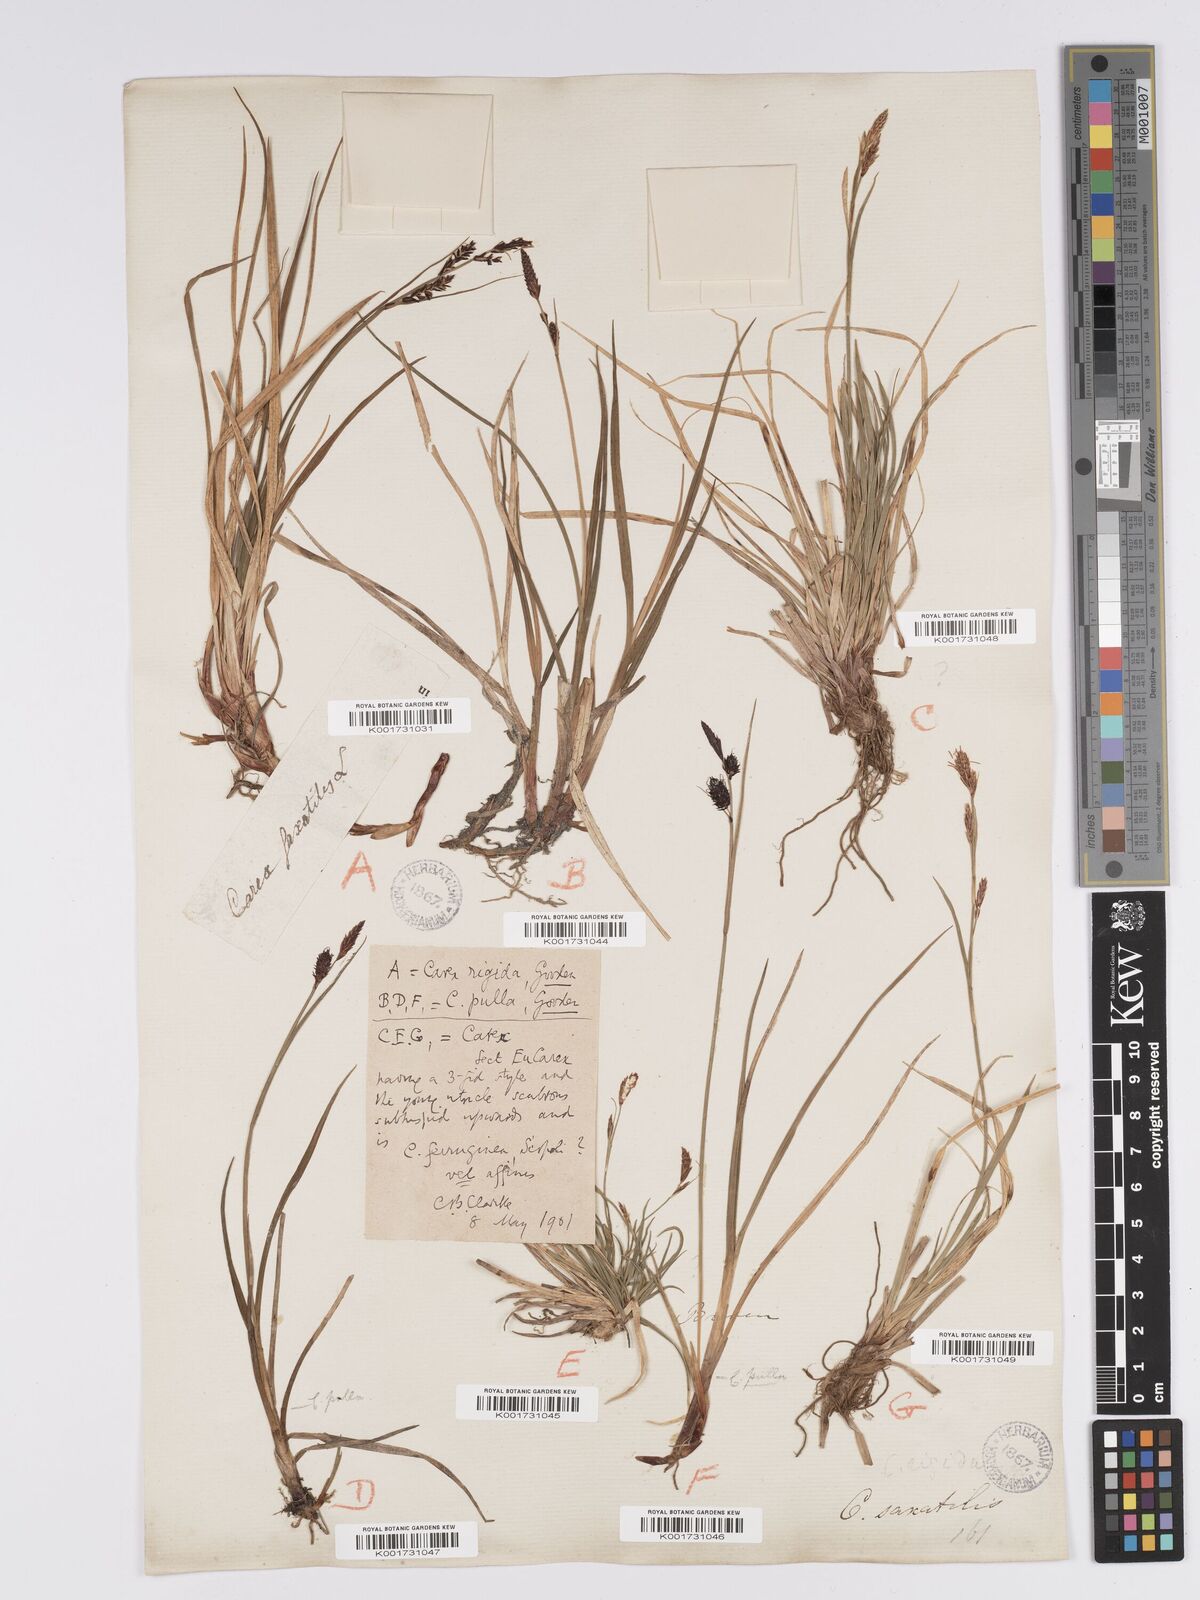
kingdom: Plantae
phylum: Tracheophyta
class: Liliopsida
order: Poales
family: Cyperaceae
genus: Carex
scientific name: Carex bigelowii
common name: Stiff sedge
